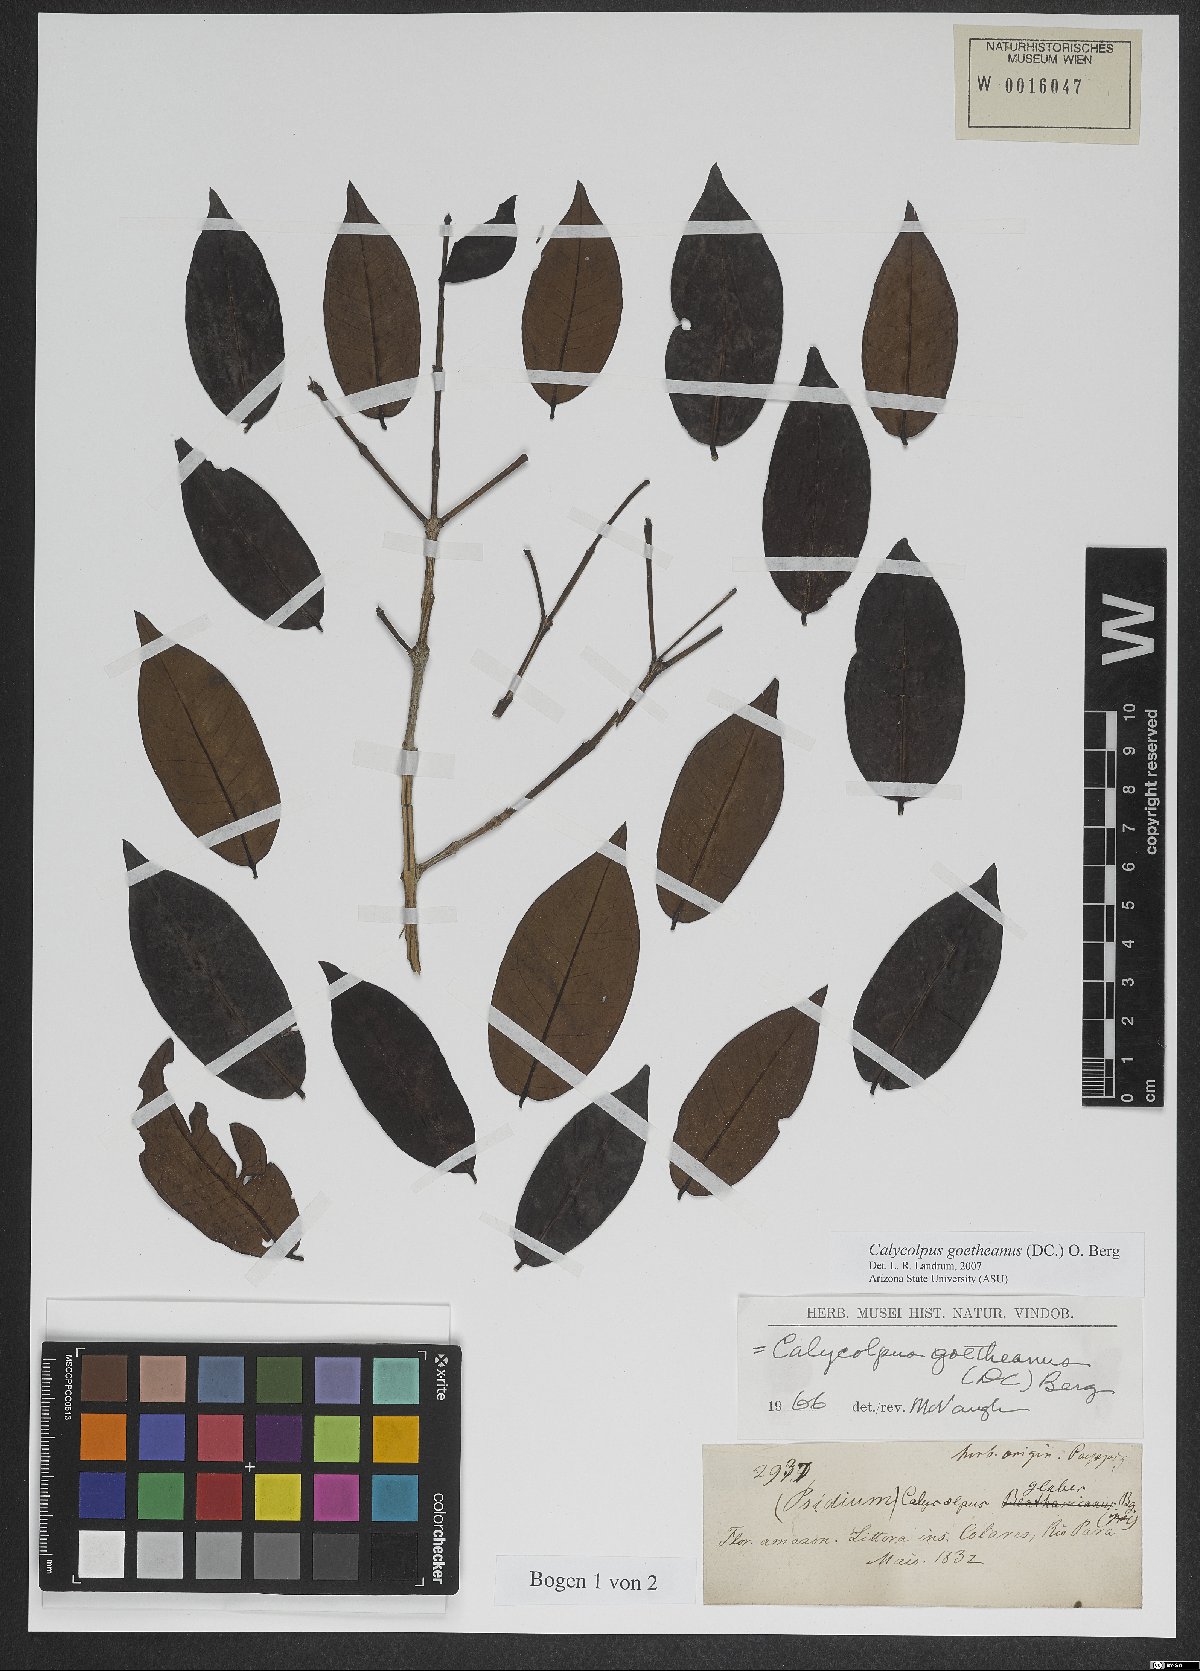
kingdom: Plantae
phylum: Tracheophyta
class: Magnoliopsida
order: Myrtales
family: Myrtaceae
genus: Calycolpus
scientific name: Calycolpus goetheanus
